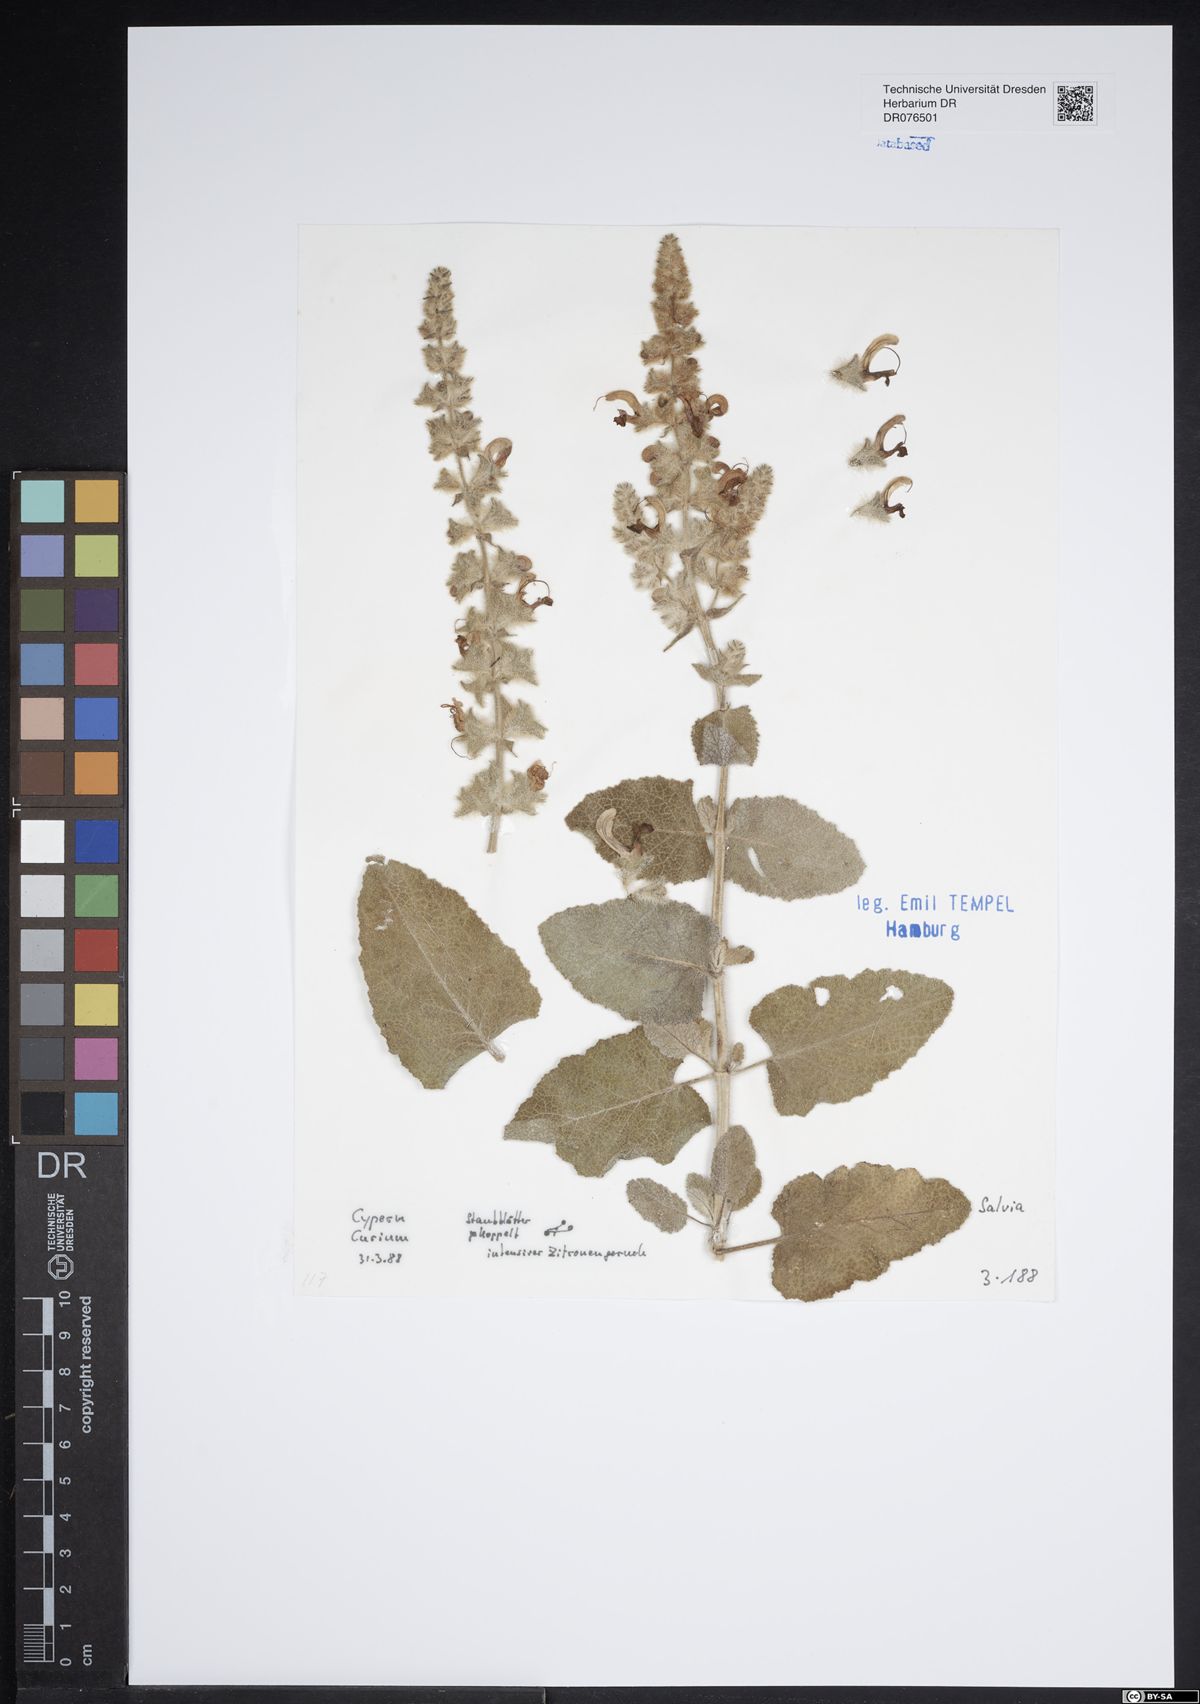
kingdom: Plantae
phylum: Tracheophyta
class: Magnoliopsida
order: Lamiales
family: Lamiaceae
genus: Salvia
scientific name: Salvia
